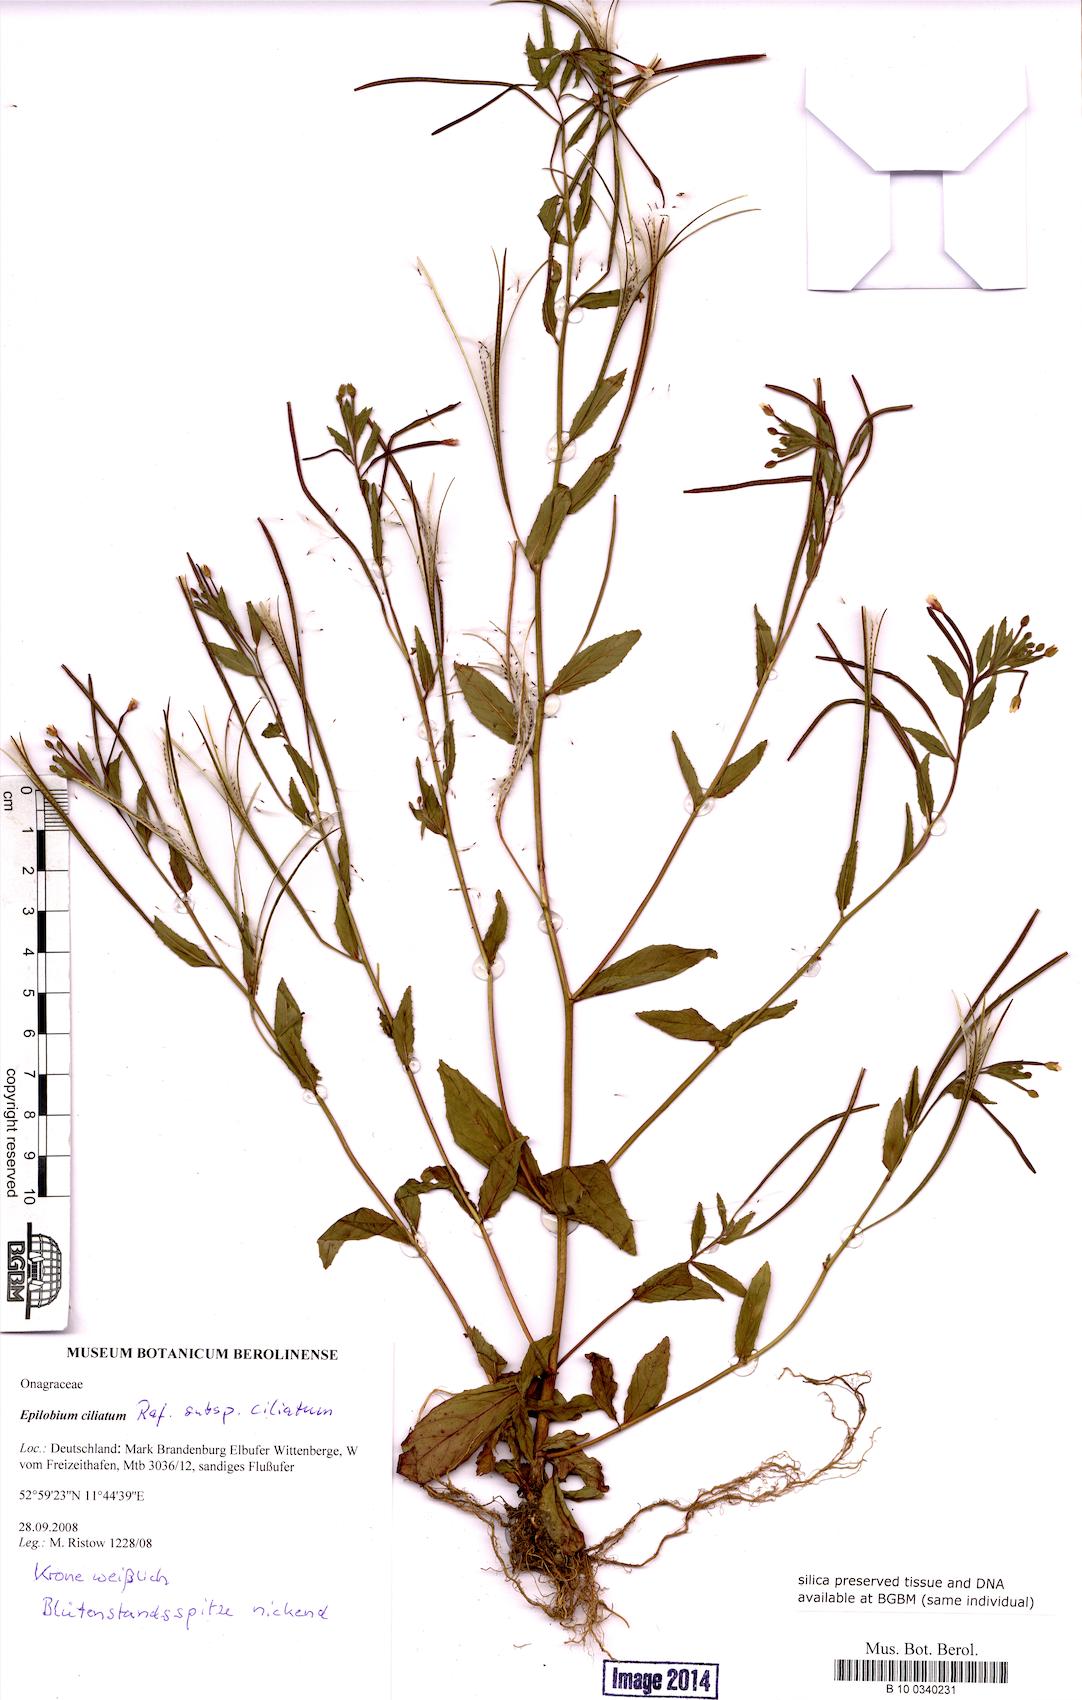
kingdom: Plantae
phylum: Tracheophyta
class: Magnoliopsida
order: Myrtales
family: Onagraceae
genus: Epilobium
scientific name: Epilobium ciliatum
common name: American willowherb
